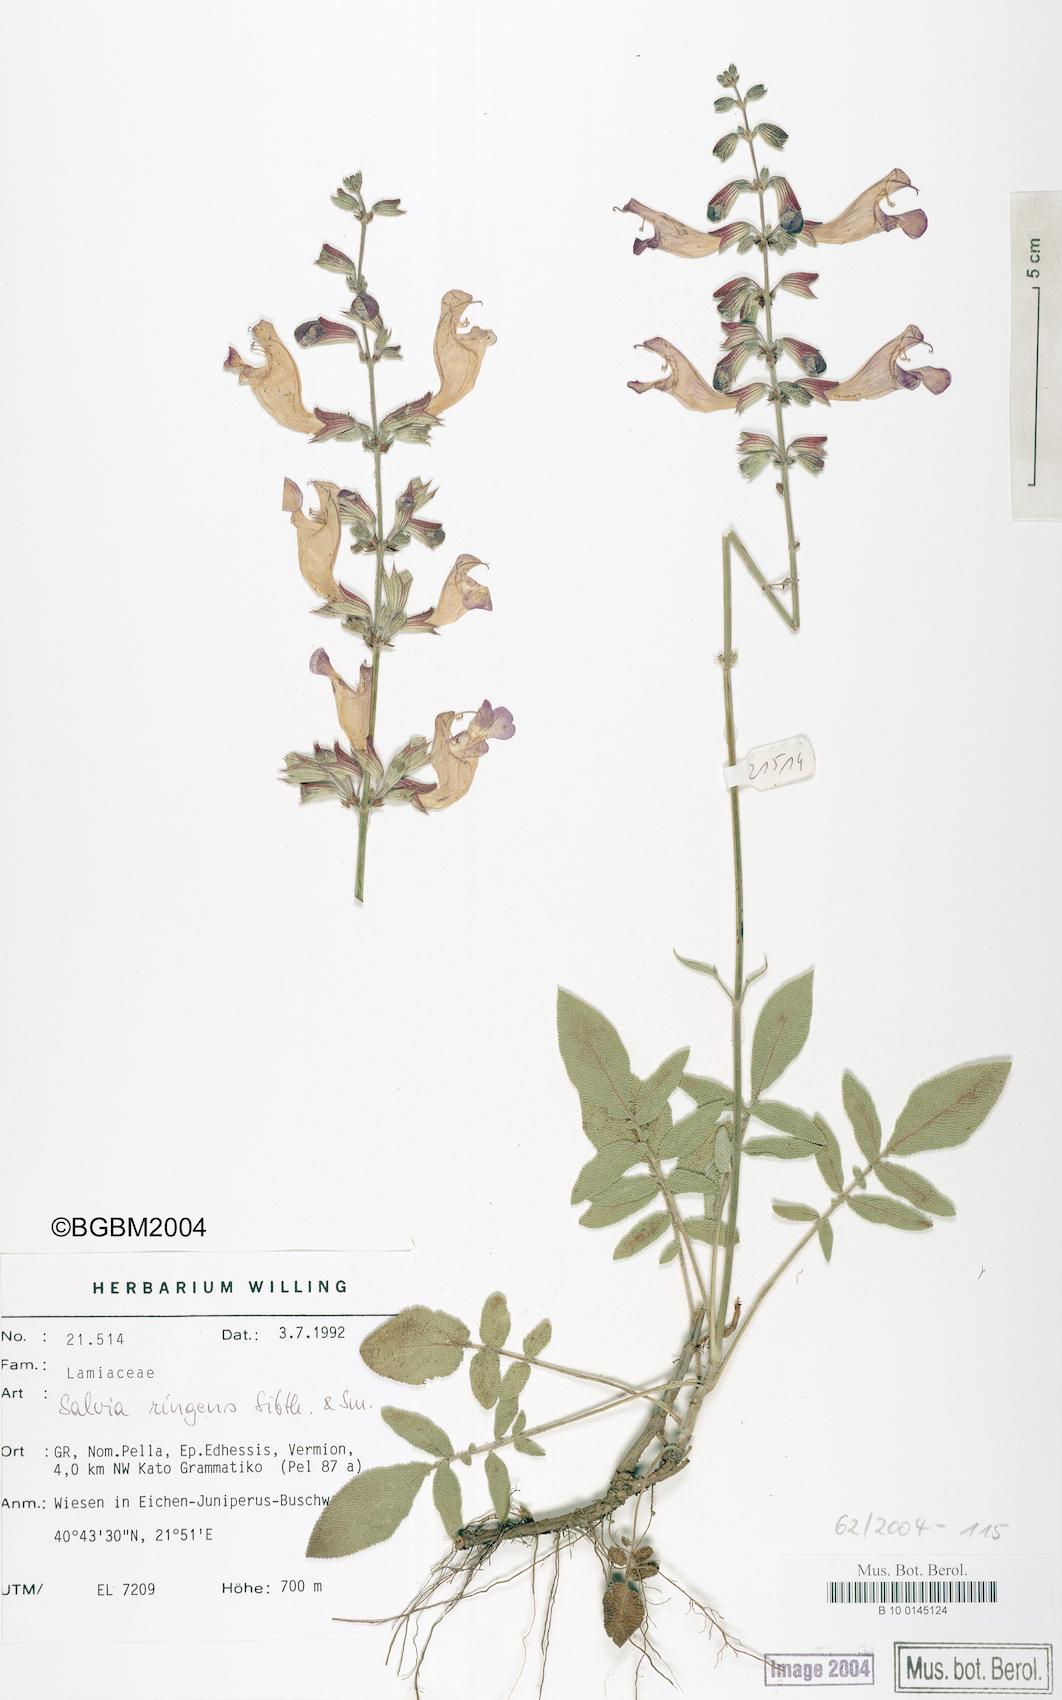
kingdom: Plantae
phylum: Tracheophyta
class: Magnoliopsida
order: Lamiales
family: Lamiaceae
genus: Salvia
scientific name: Salvia ringens
